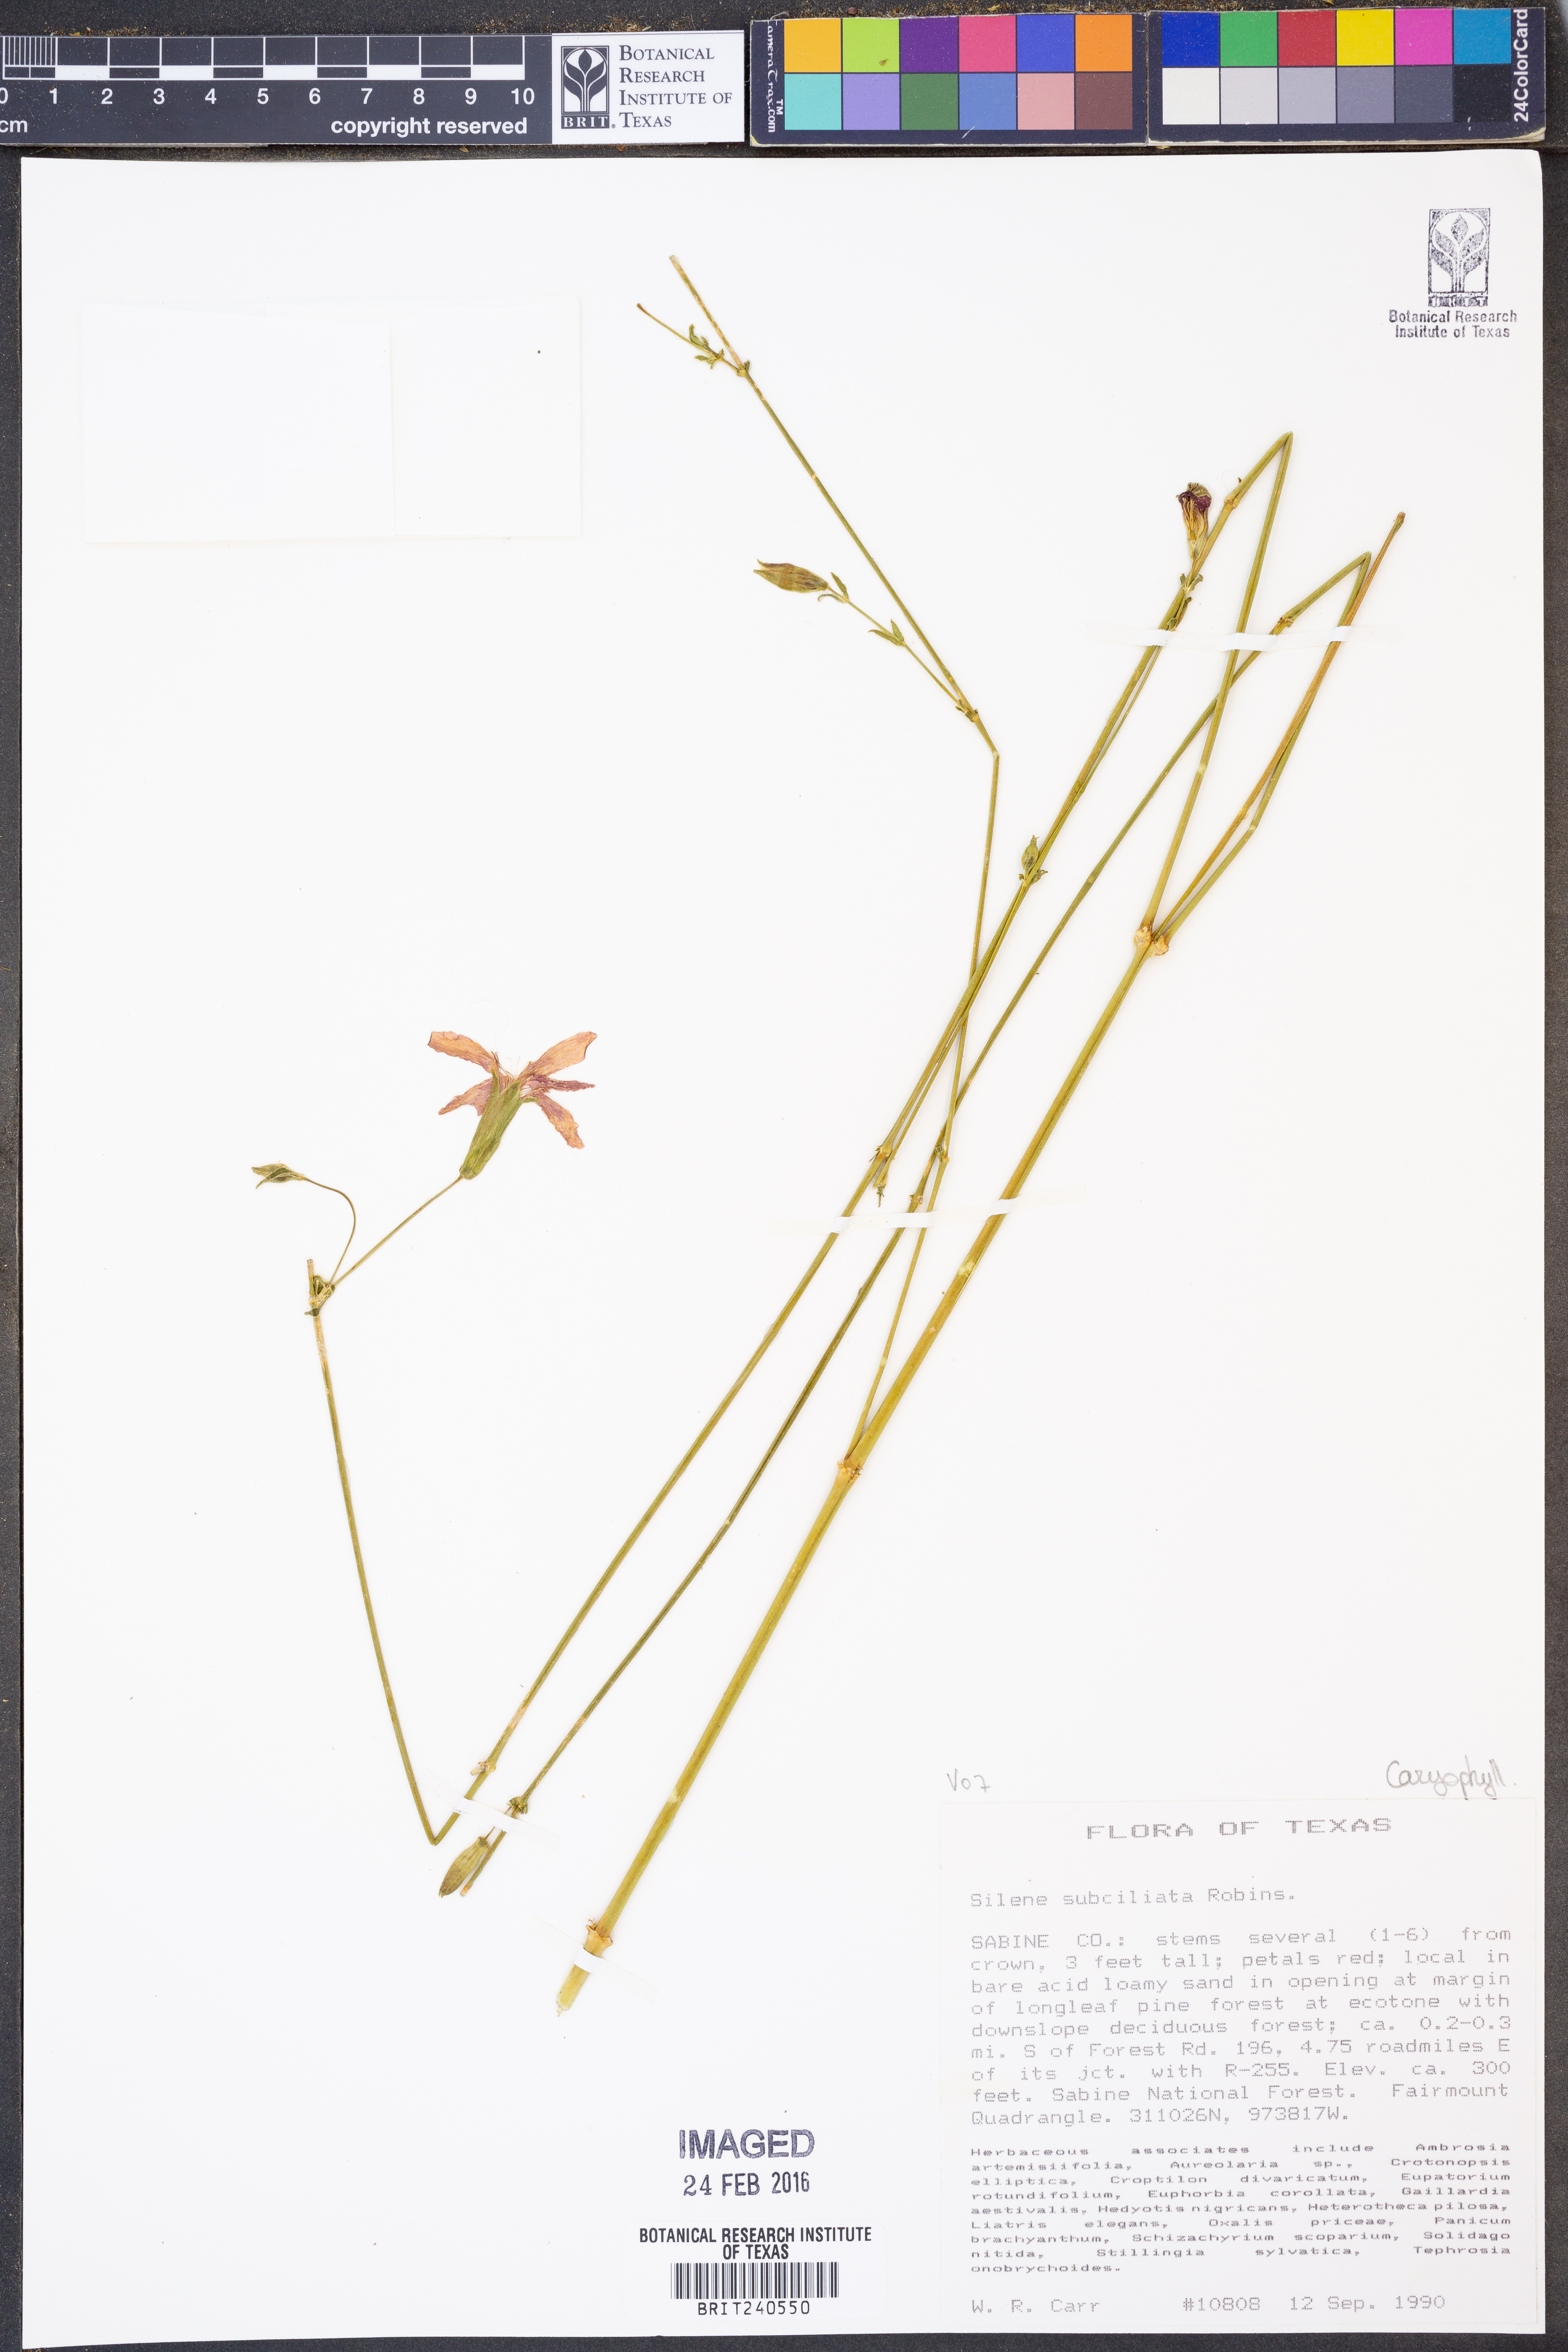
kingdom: Plantae
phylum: Tracheophyta
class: Magnoliopsida
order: Caryophyllales
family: Caryophyllaceae
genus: Silene
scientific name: Silene subciliata
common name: Prairie fire-pink
